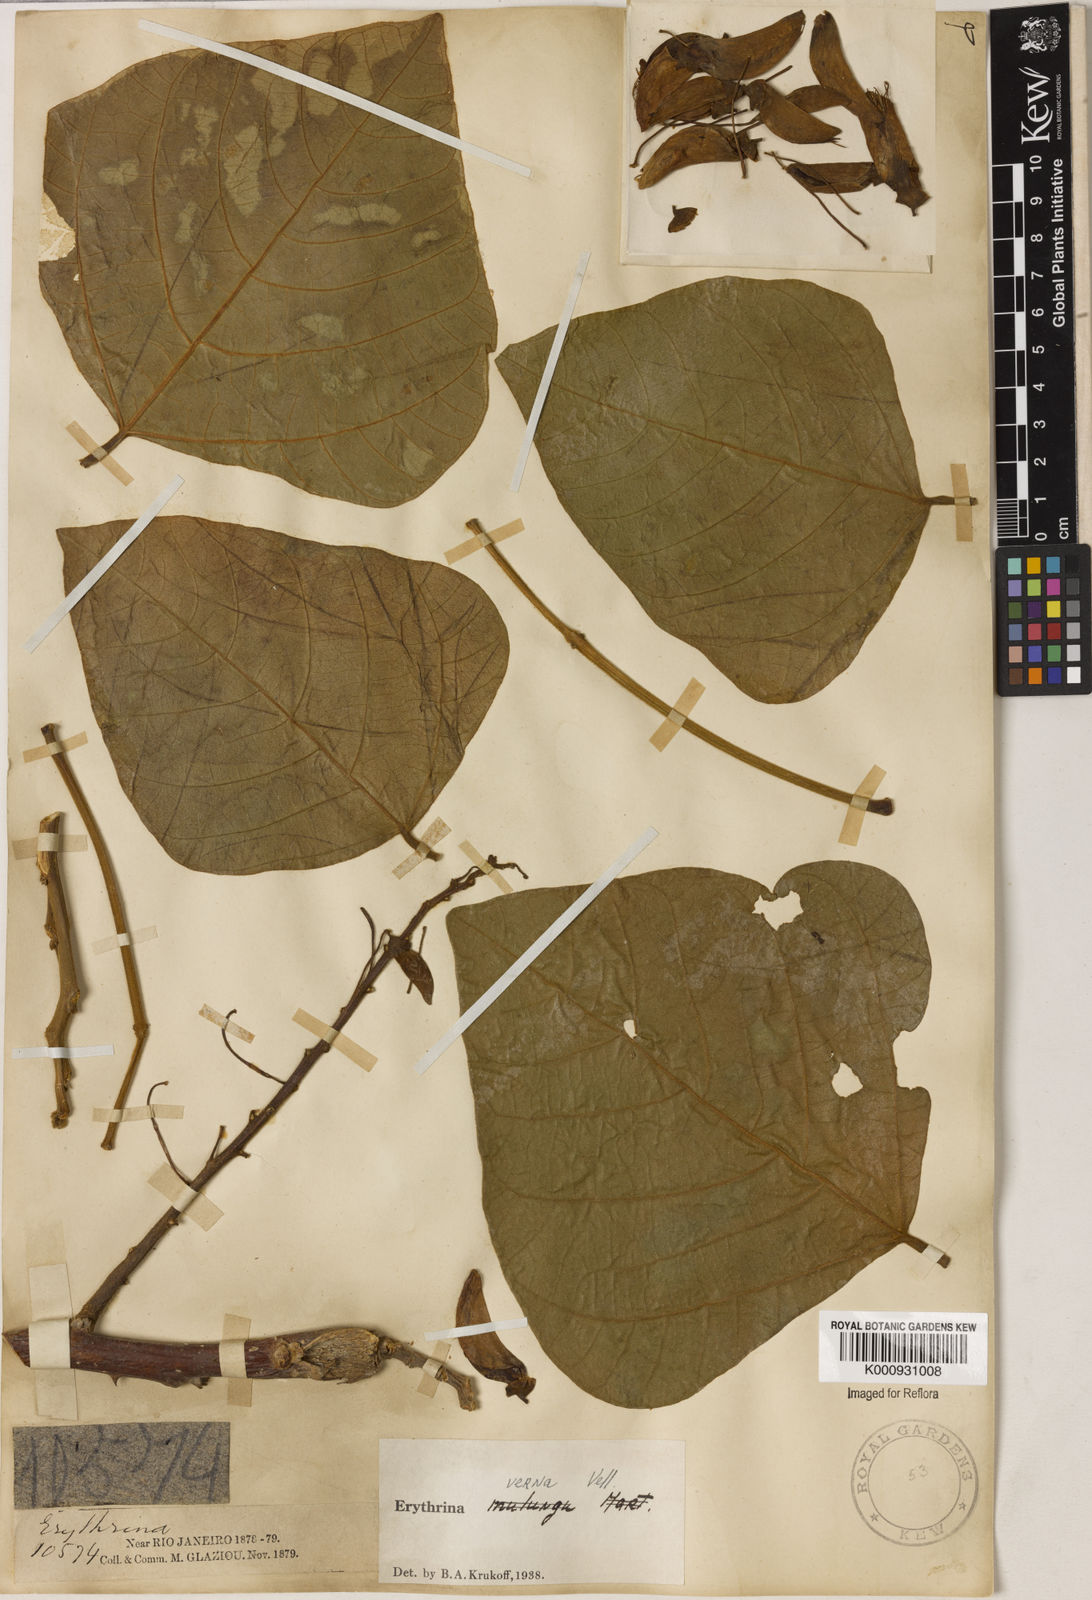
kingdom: Plantae
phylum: Tracheophyta
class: Magnoliopsida
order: Fabales
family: Fabaceae
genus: Erythrina
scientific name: Erythrina verna
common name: Mulungú
